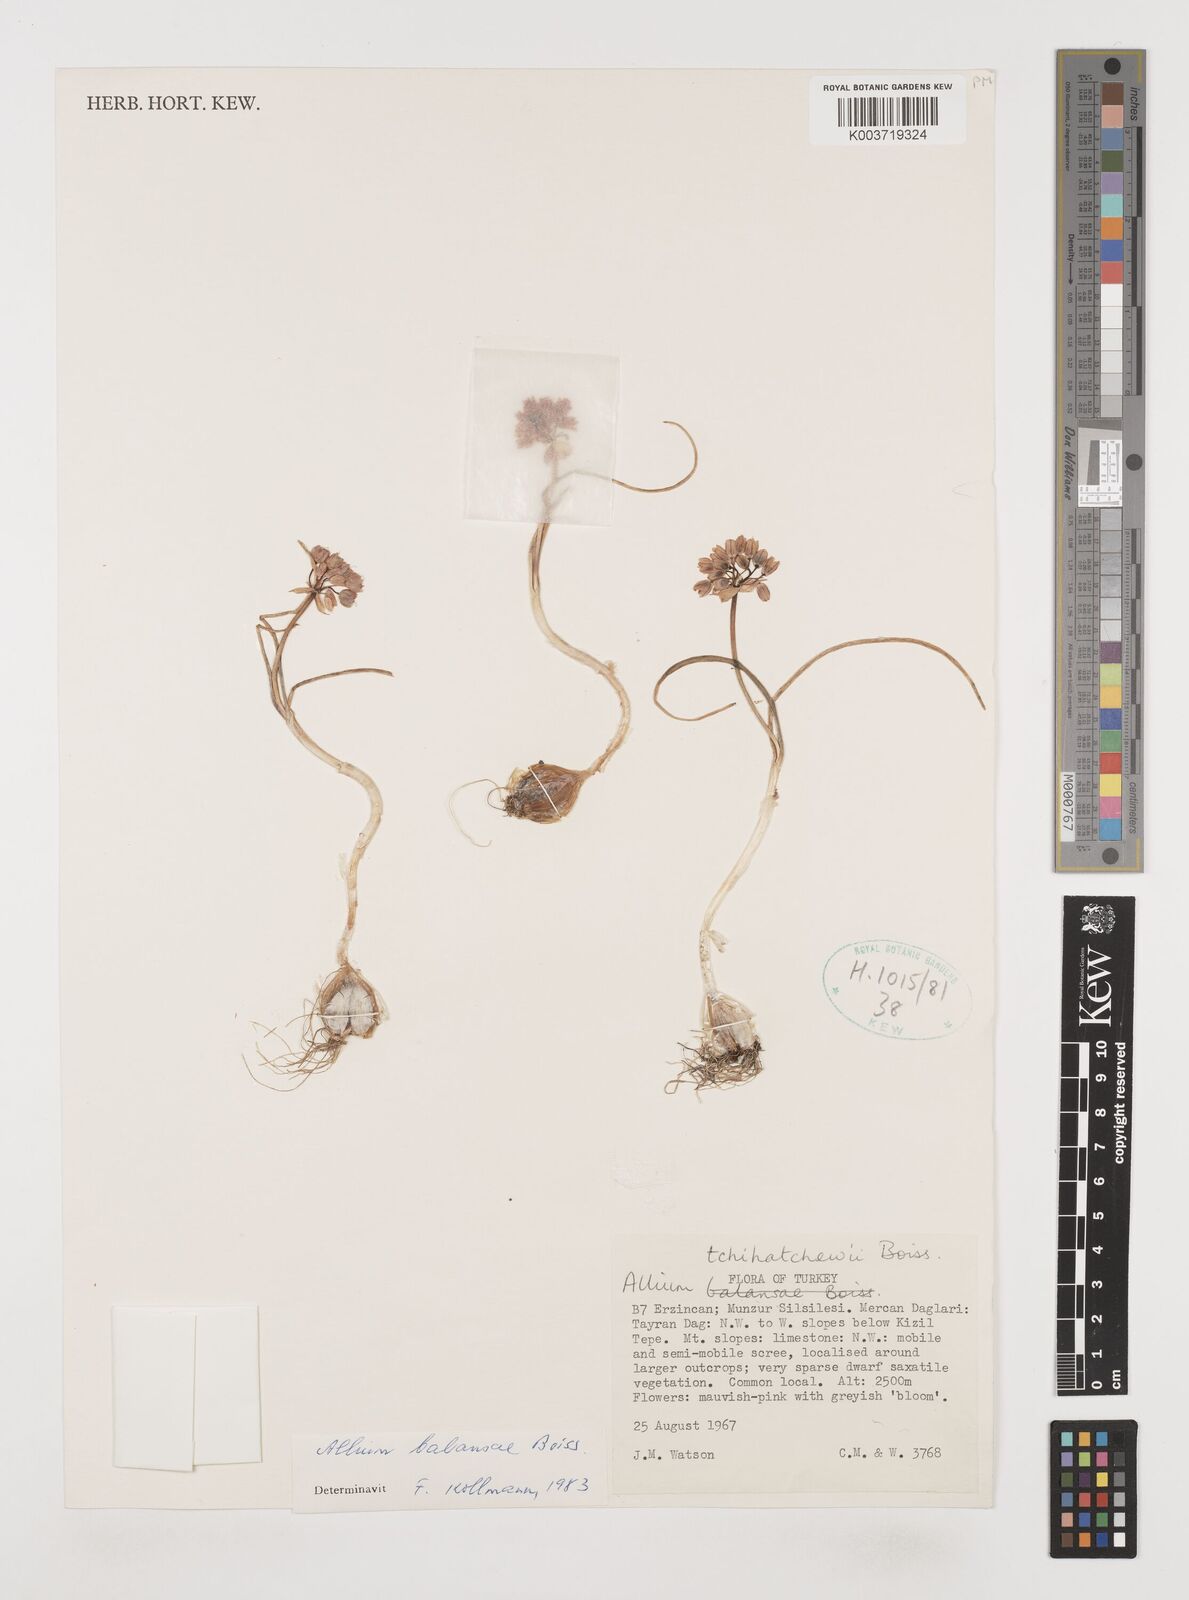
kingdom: Plantae
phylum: Tracheophyta
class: Liliopsida
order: Asparagales
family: Amaryllidaceae
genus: Allium
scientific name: Allium balansae
